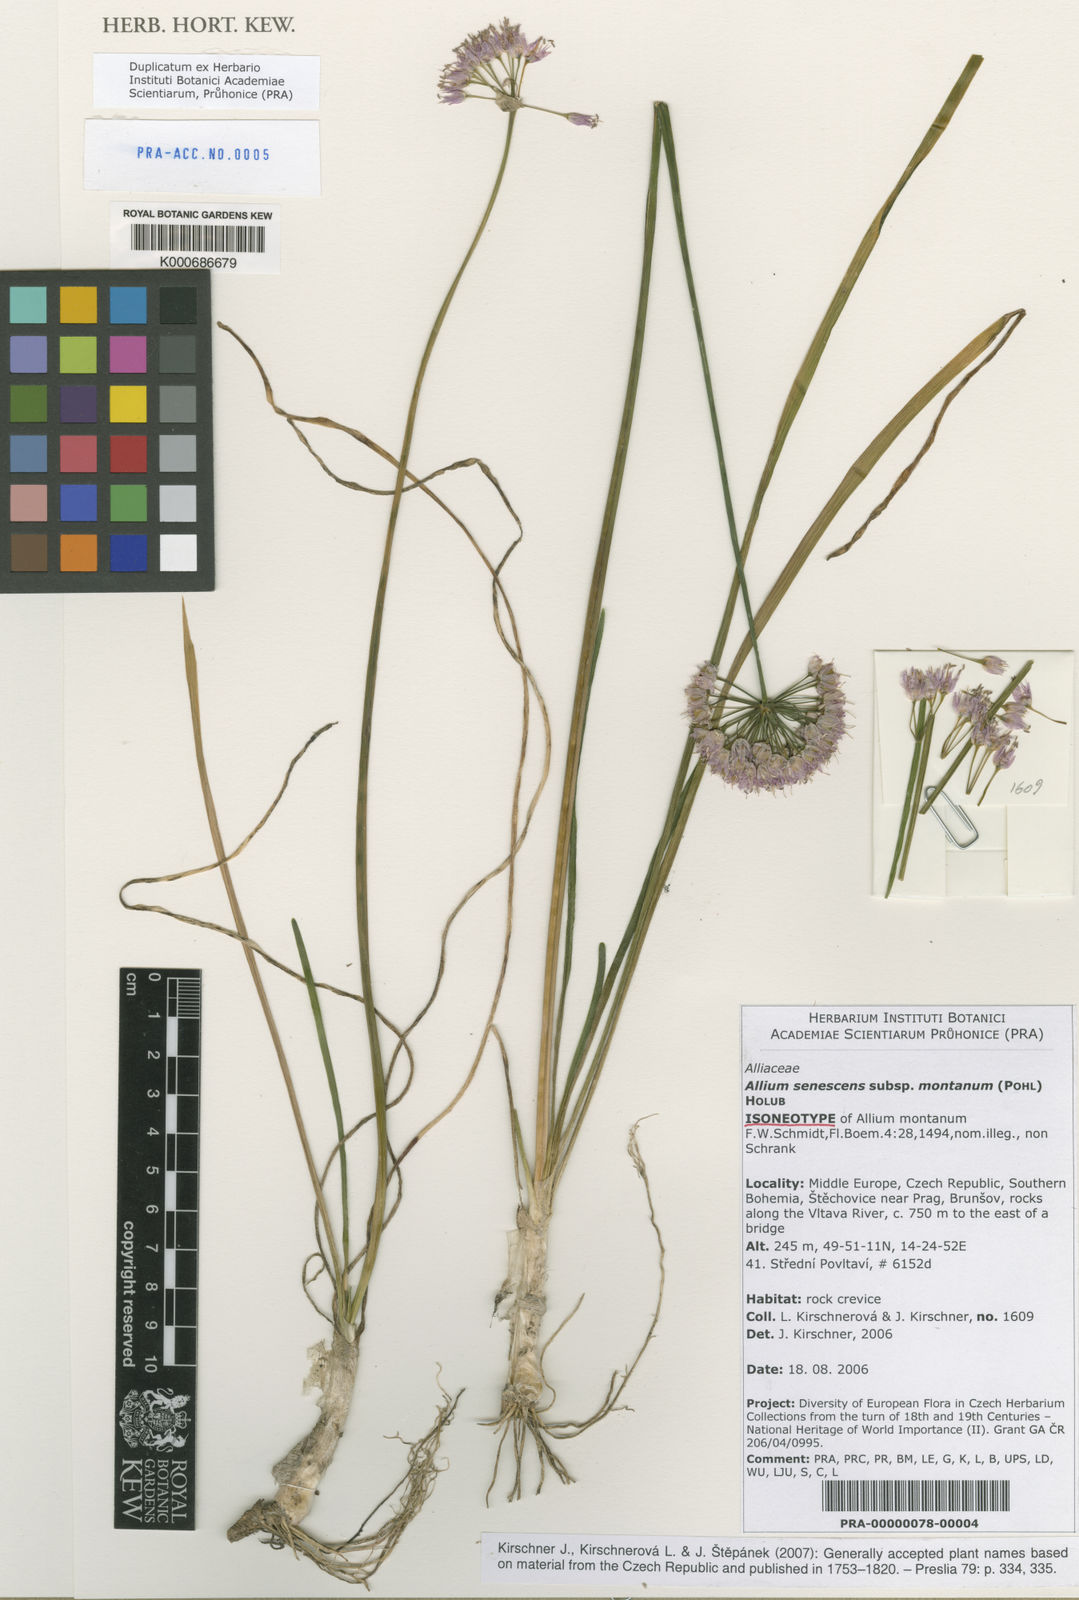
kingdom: Plantae
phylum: Tracheophyta
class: Liliopsida
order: Asparagales
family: Amaryllidaceae
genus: Allium
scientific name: Allium schoenoprasum
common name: Chives
